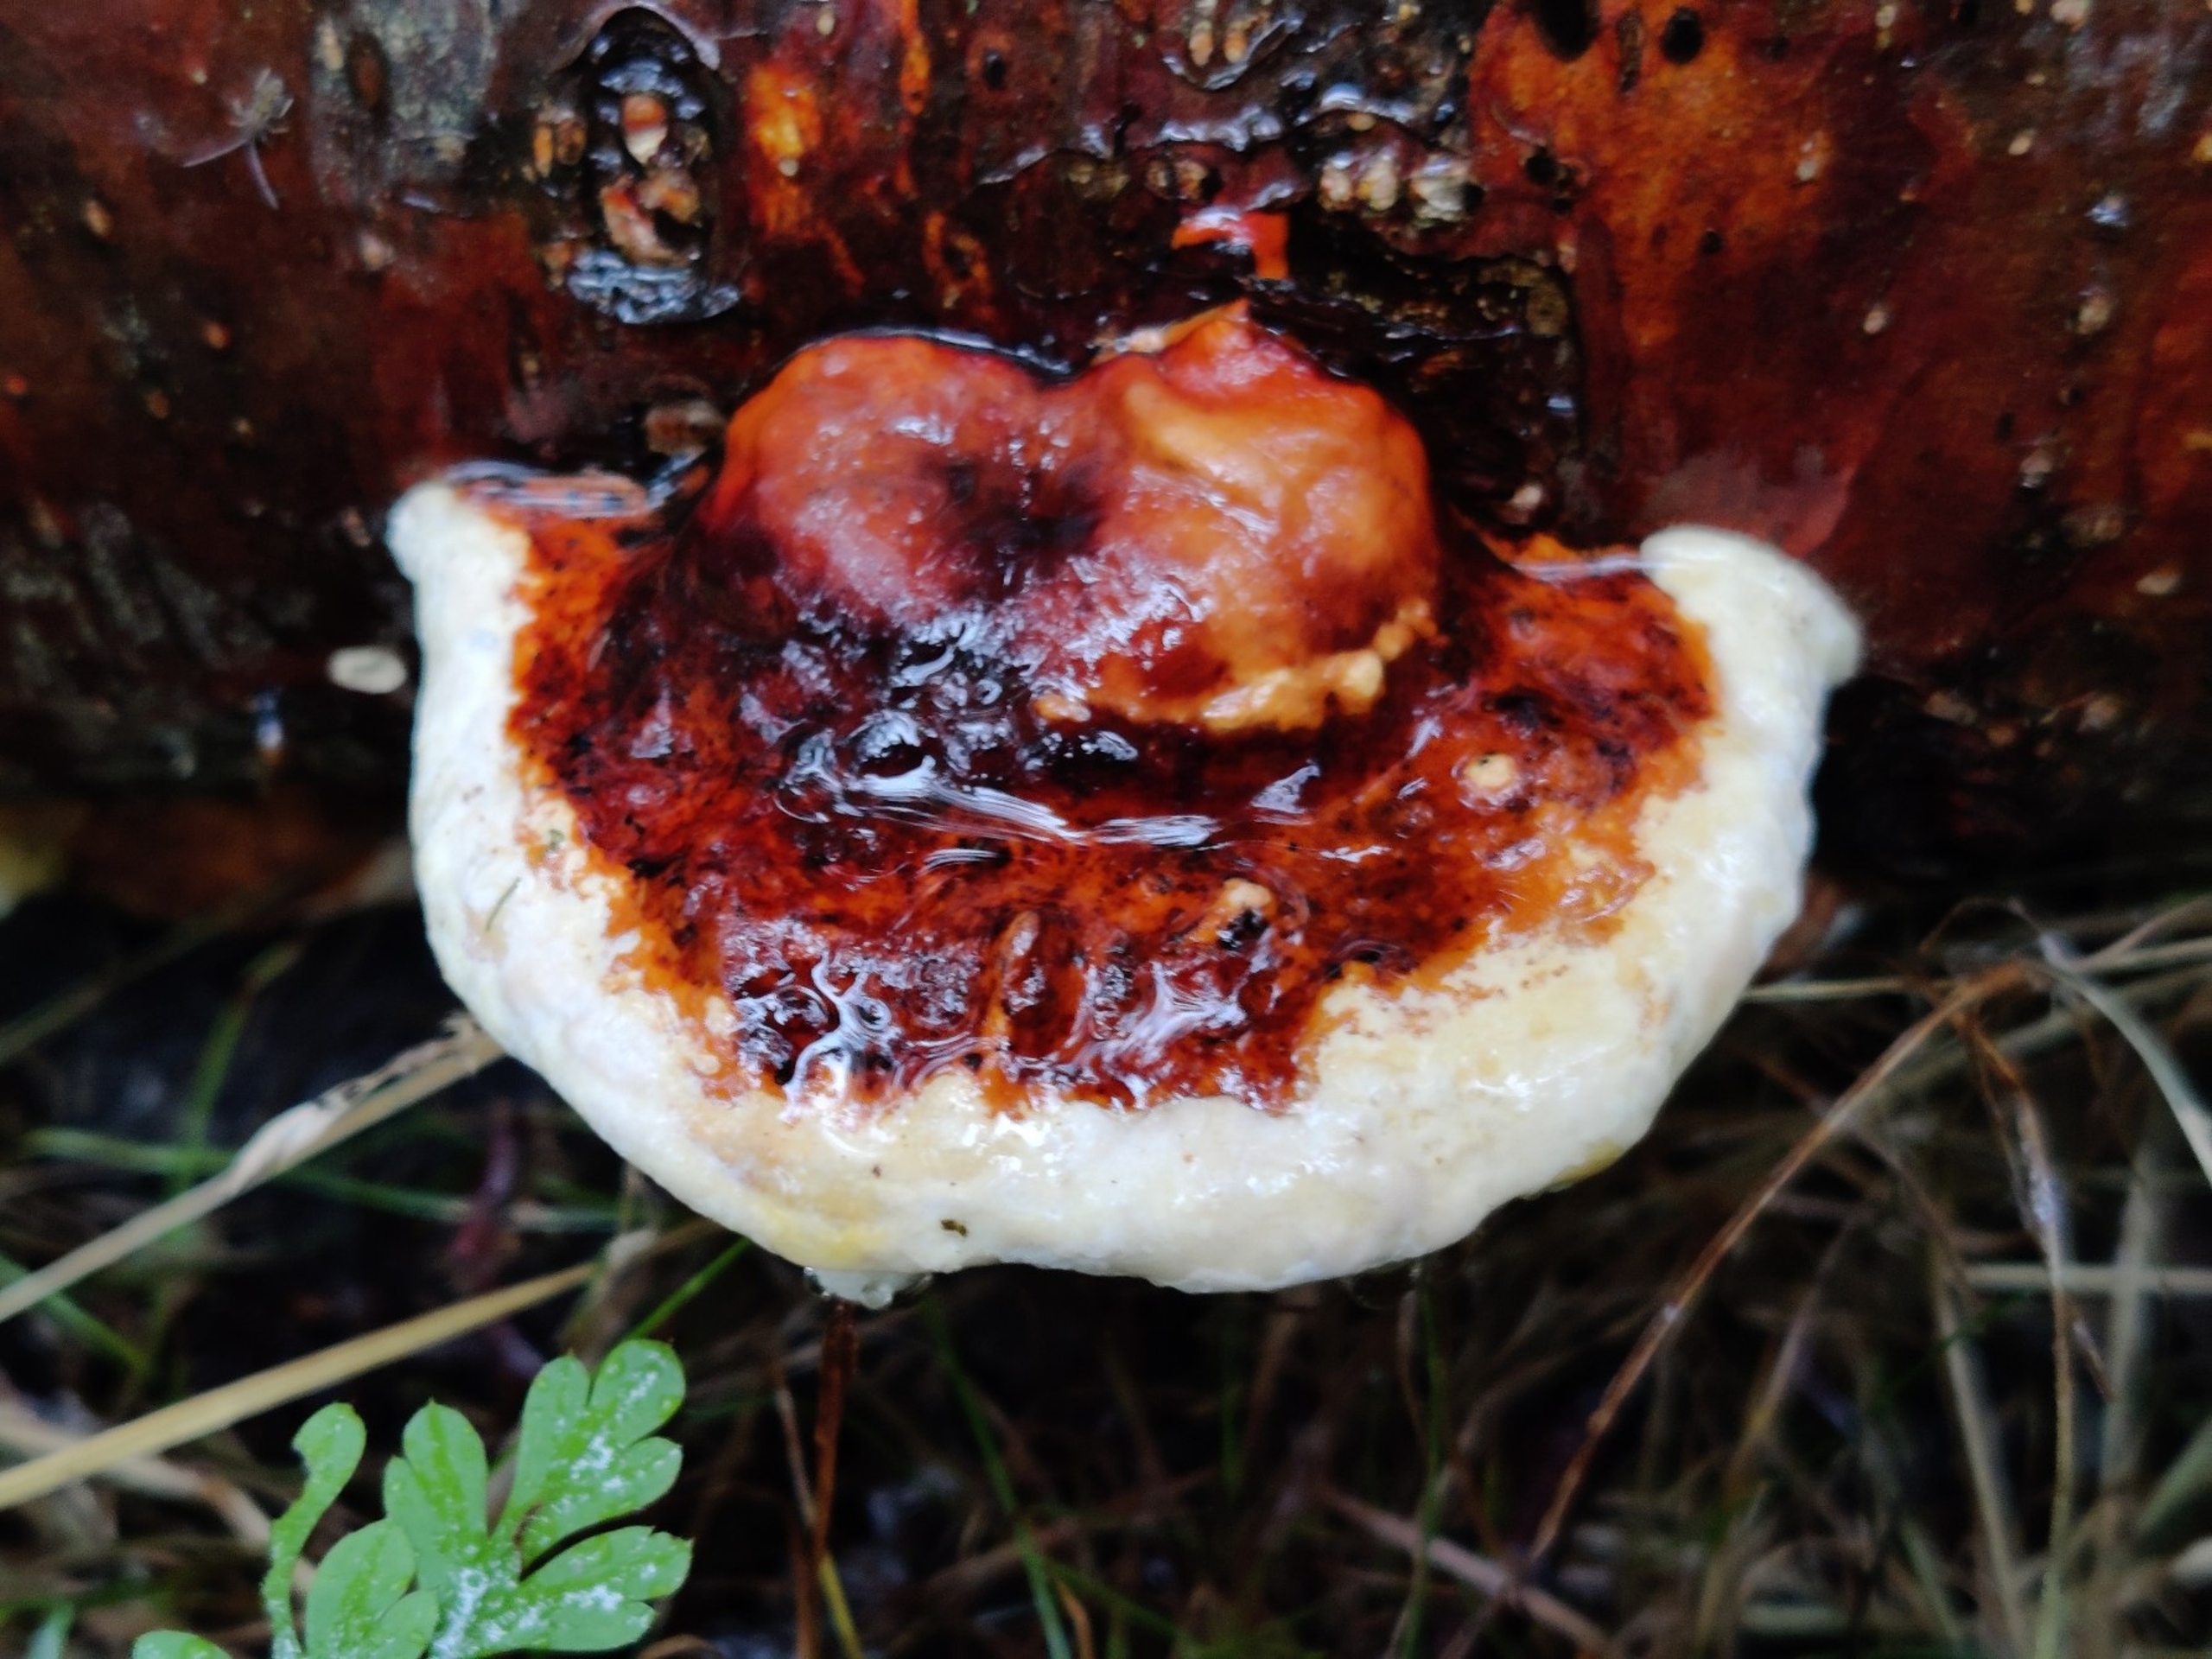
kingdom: Fungi
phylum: Basidiomycota
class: Agaricomycetes
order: Polyporales
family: Fomitopsidaceae
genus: Fomitopsis
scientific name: Fomitopsis pinicola
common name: Randbæltet hovporesvamp
